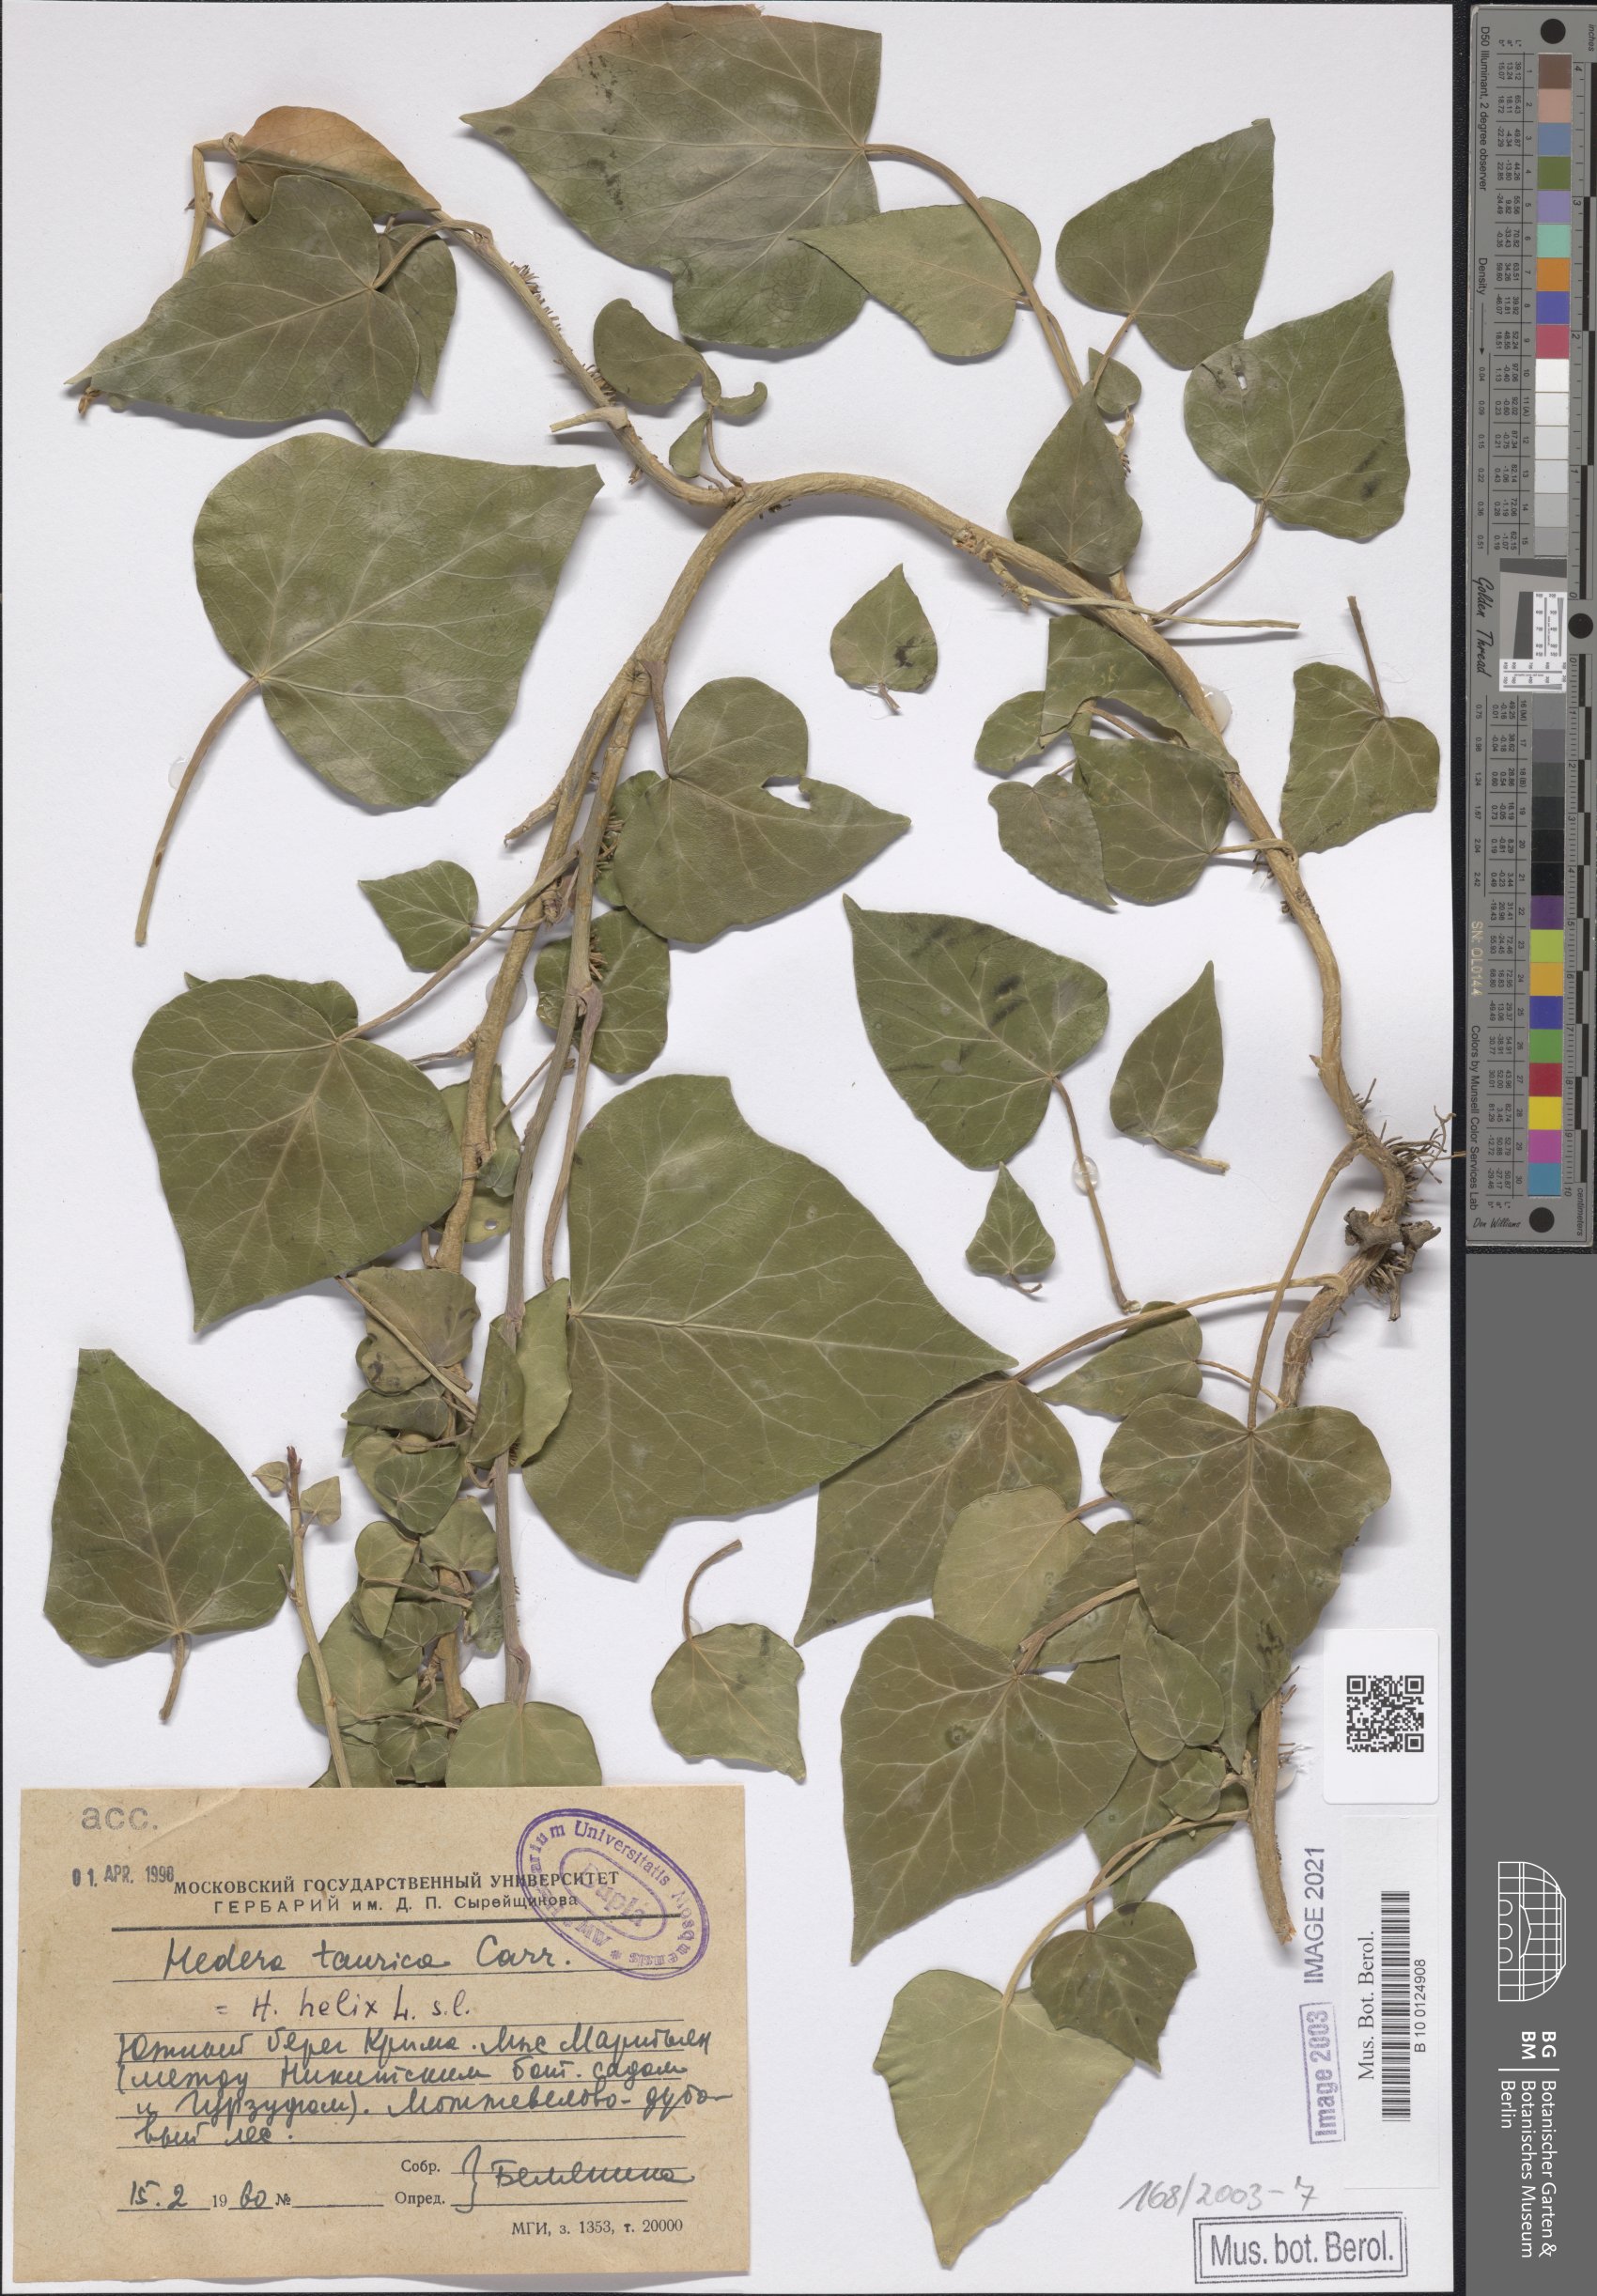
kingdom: Plantae
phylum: Tracheophyta
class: Magnoliopsida
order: Apiales
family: Araliaceae
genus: Hedera
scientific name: Hedera helix
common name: Ivy
